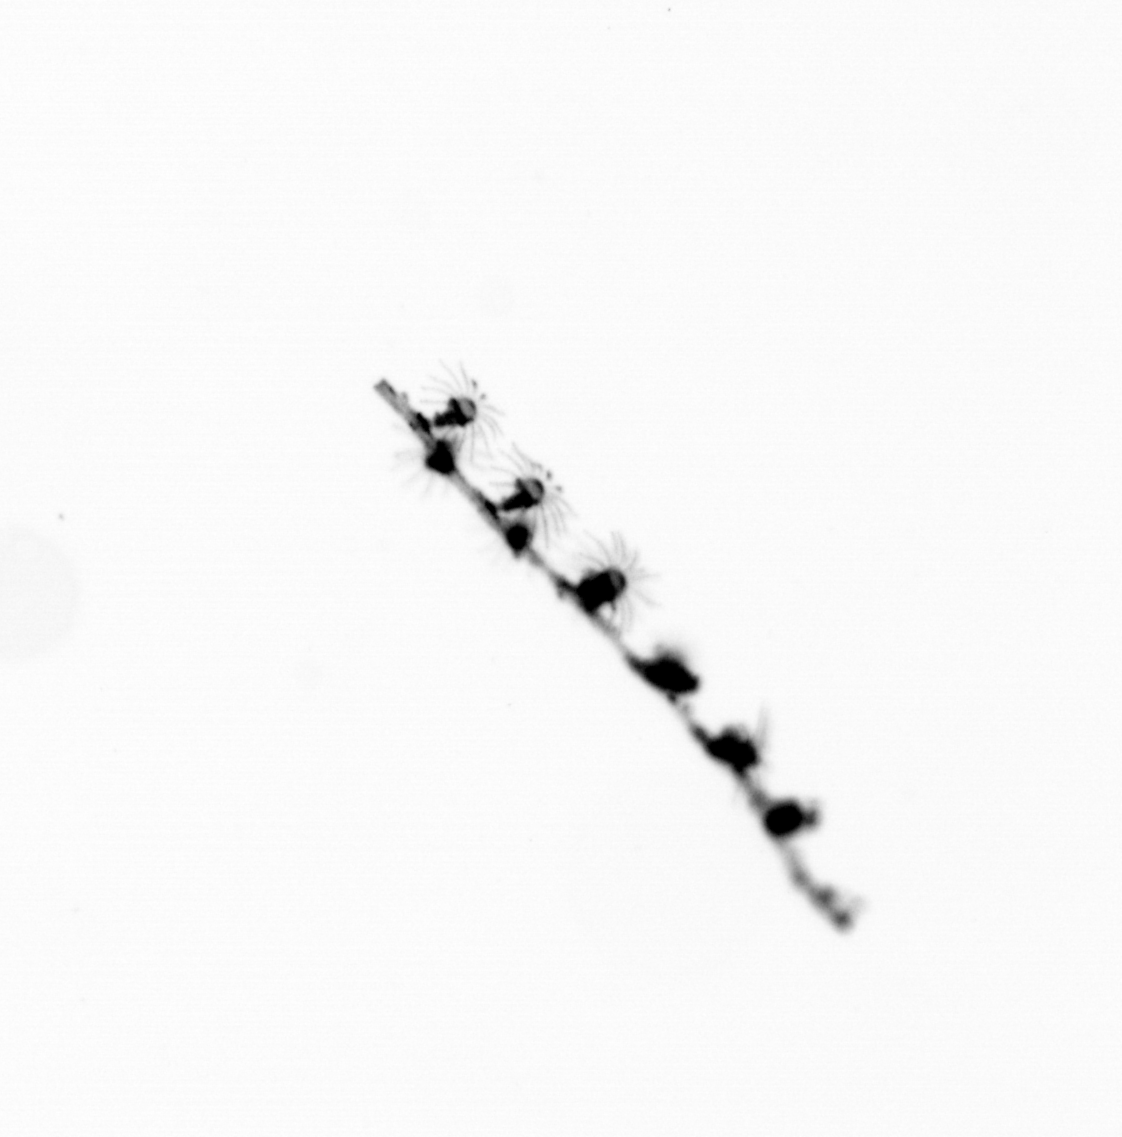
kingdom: Animalia
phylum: Cnidaria
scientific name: Cnidaria
